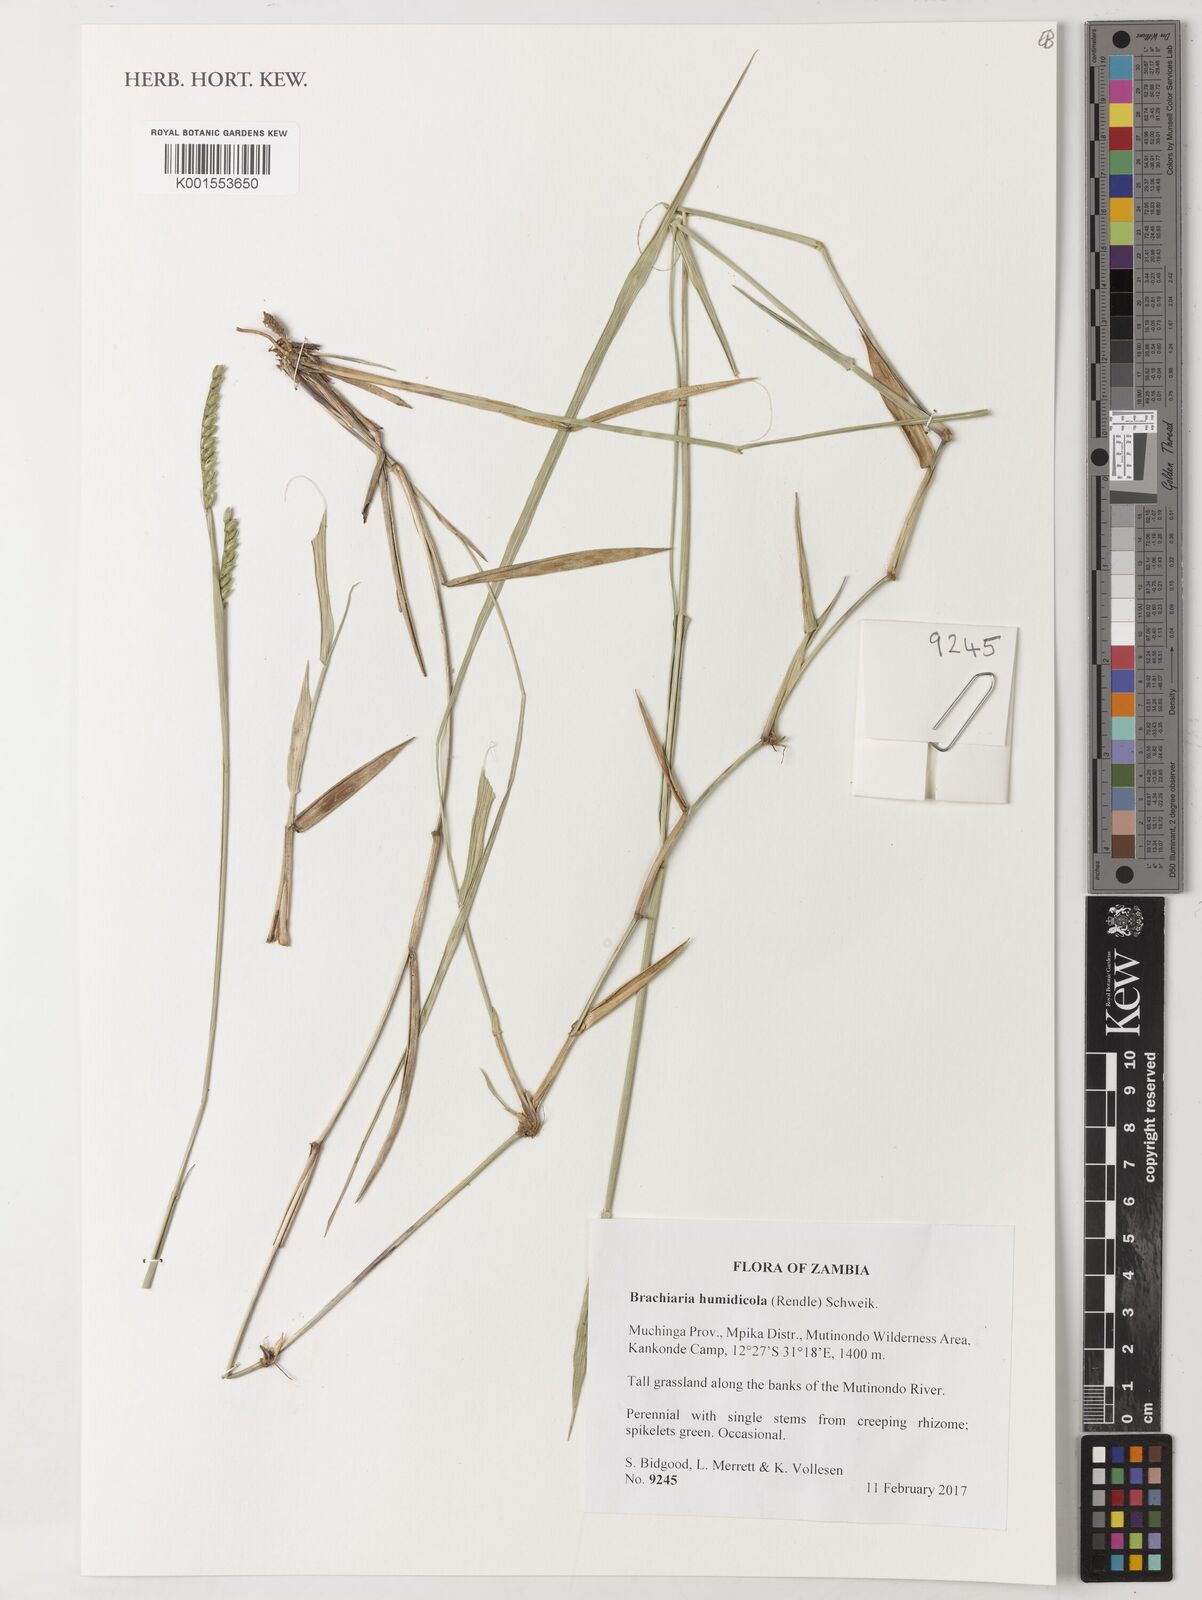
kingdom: Plantae
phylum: Tracheophyta
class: Liliopsida
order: Poales
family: Poaceae
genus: Urochloa
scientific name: Urochloa dictyoneura
